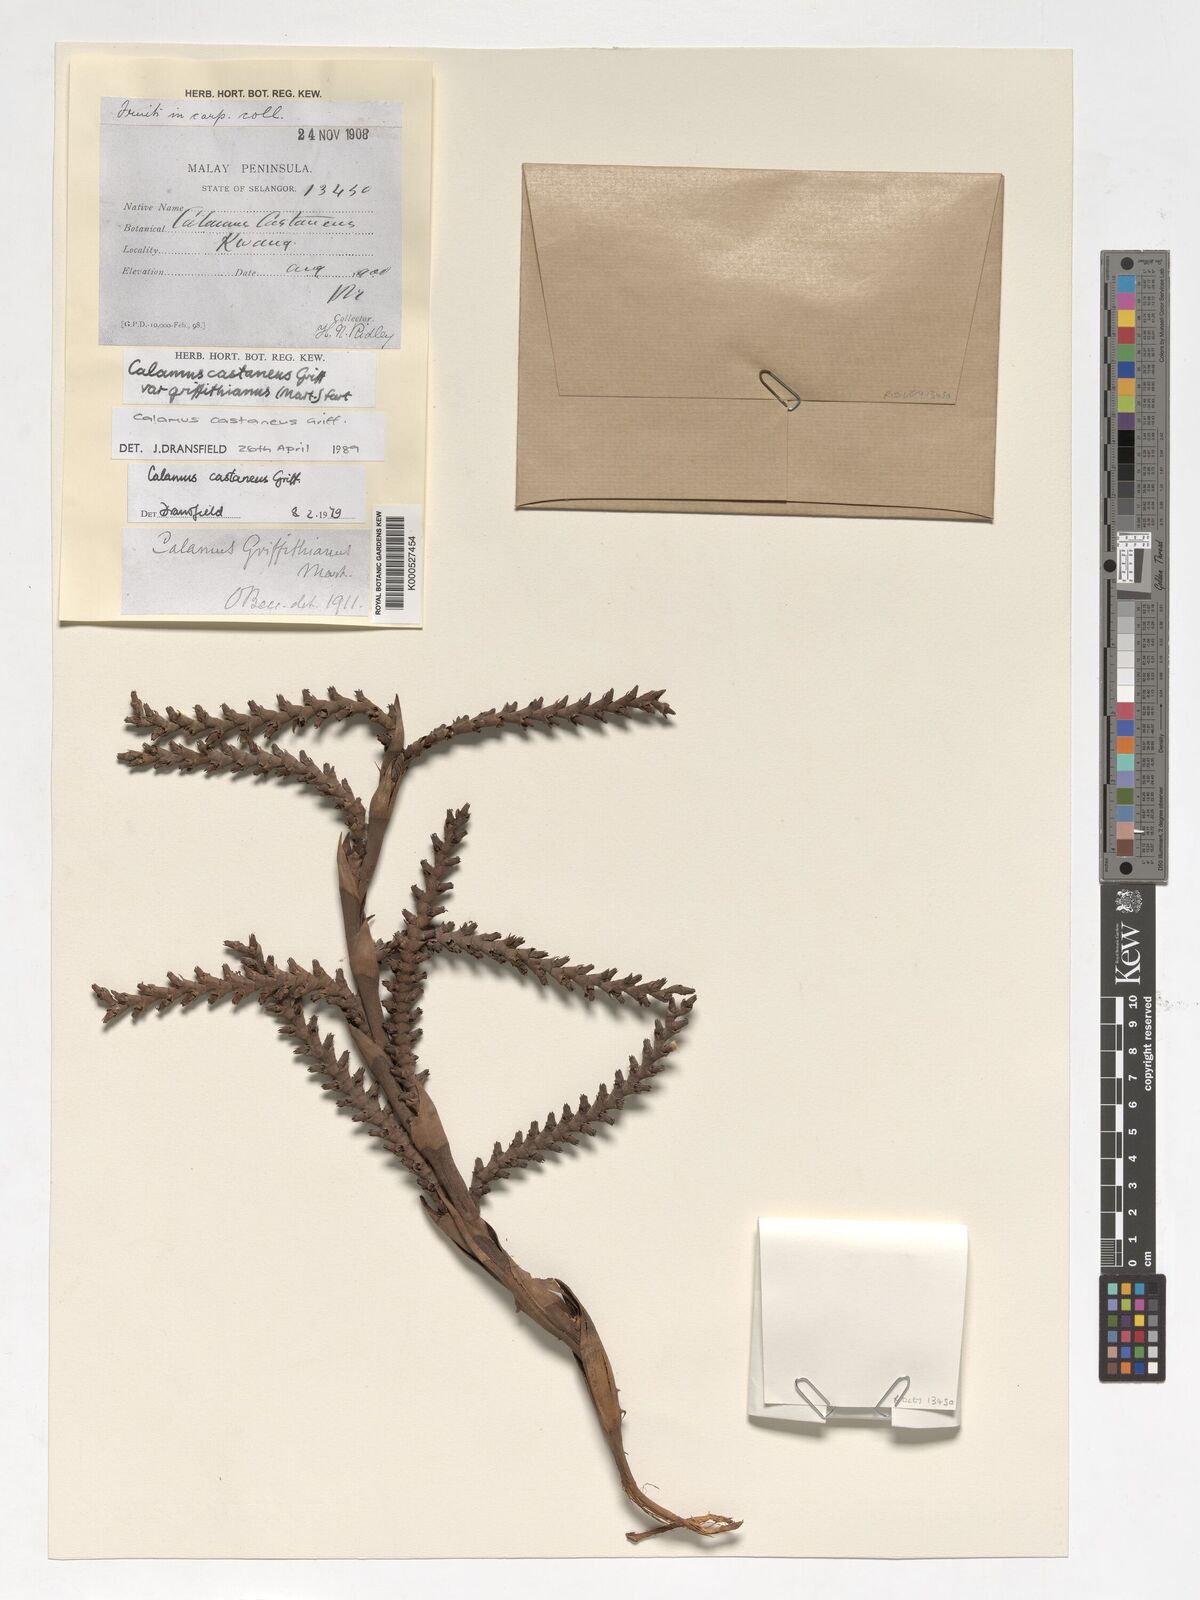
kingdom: Plantae
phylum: Tracheophyta
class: Liliopsida
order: Arecales
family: Arecaceae
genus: Calamus
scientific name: Calamus castaneus
